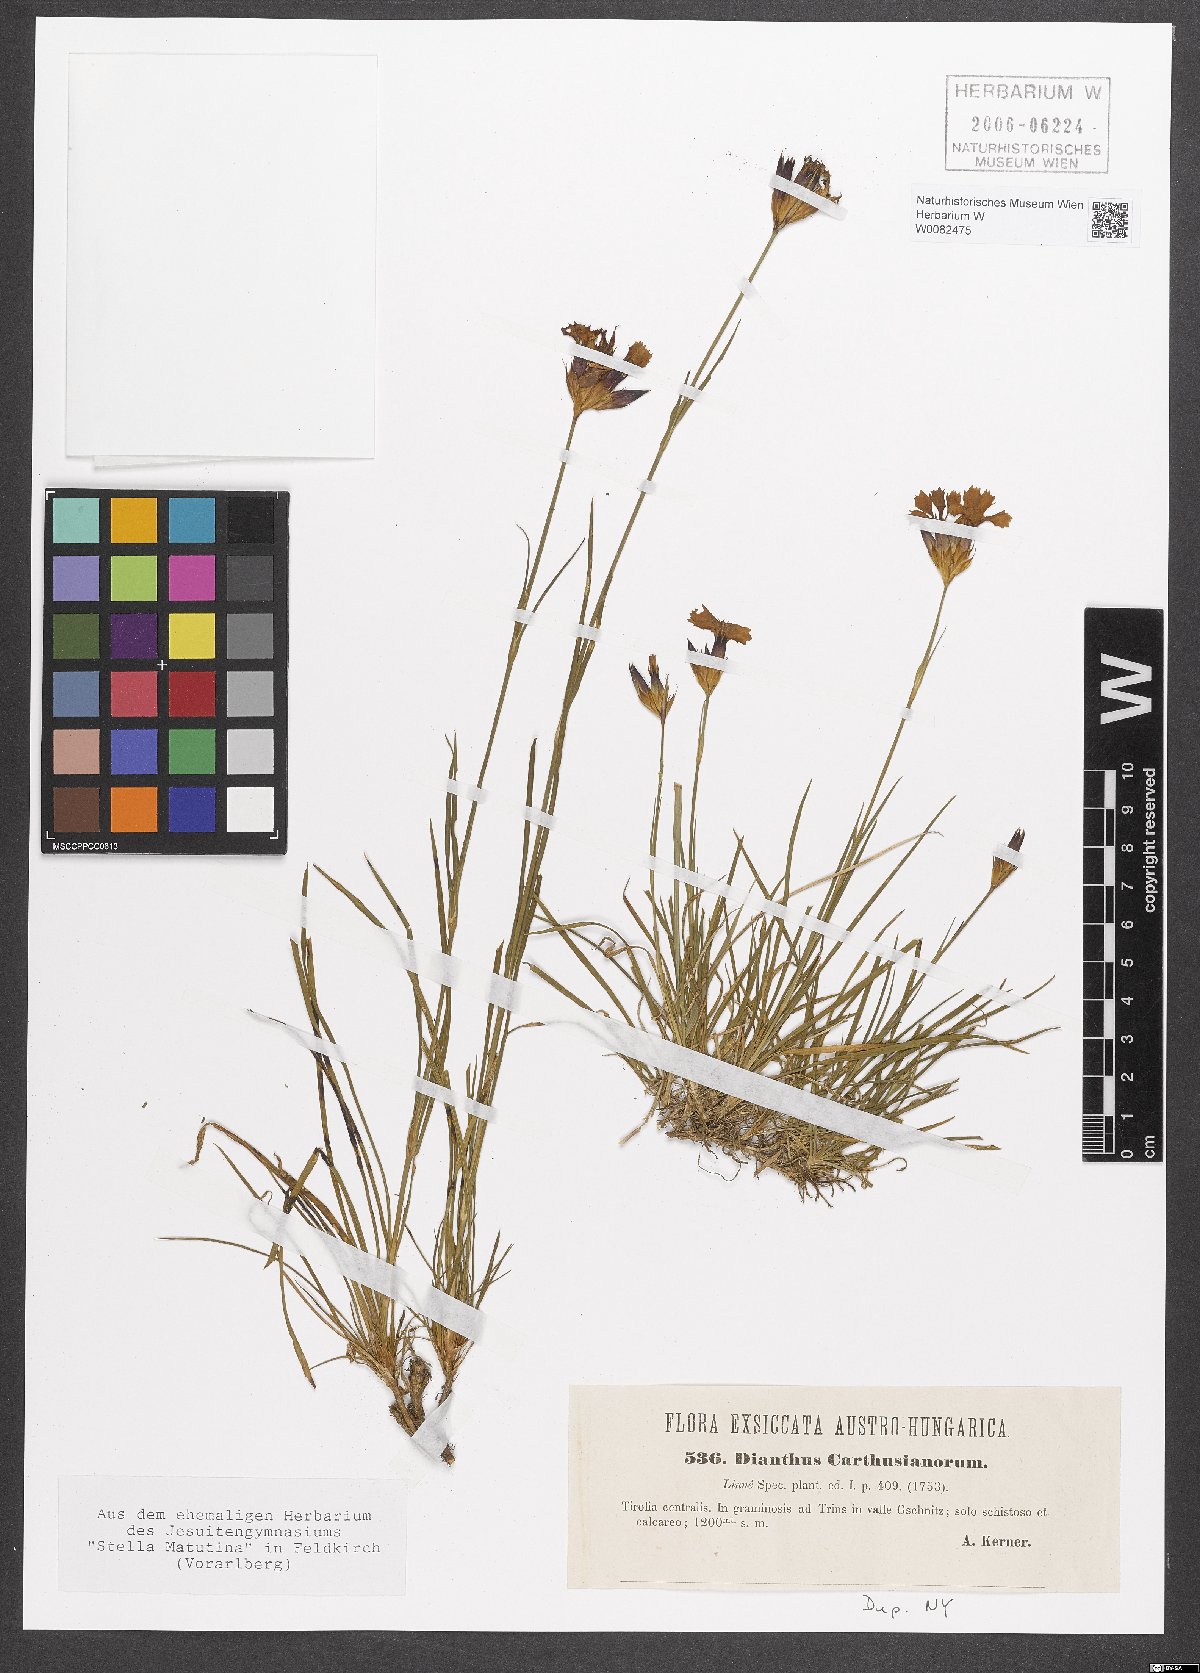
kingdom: Plantae
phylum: Tracheophyta
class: Magnoliopsida
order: Caryophyllales
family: Caryophyllaceae
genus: Dianthus
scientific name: Dianthus carthusianorum
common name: Carthusian pink
